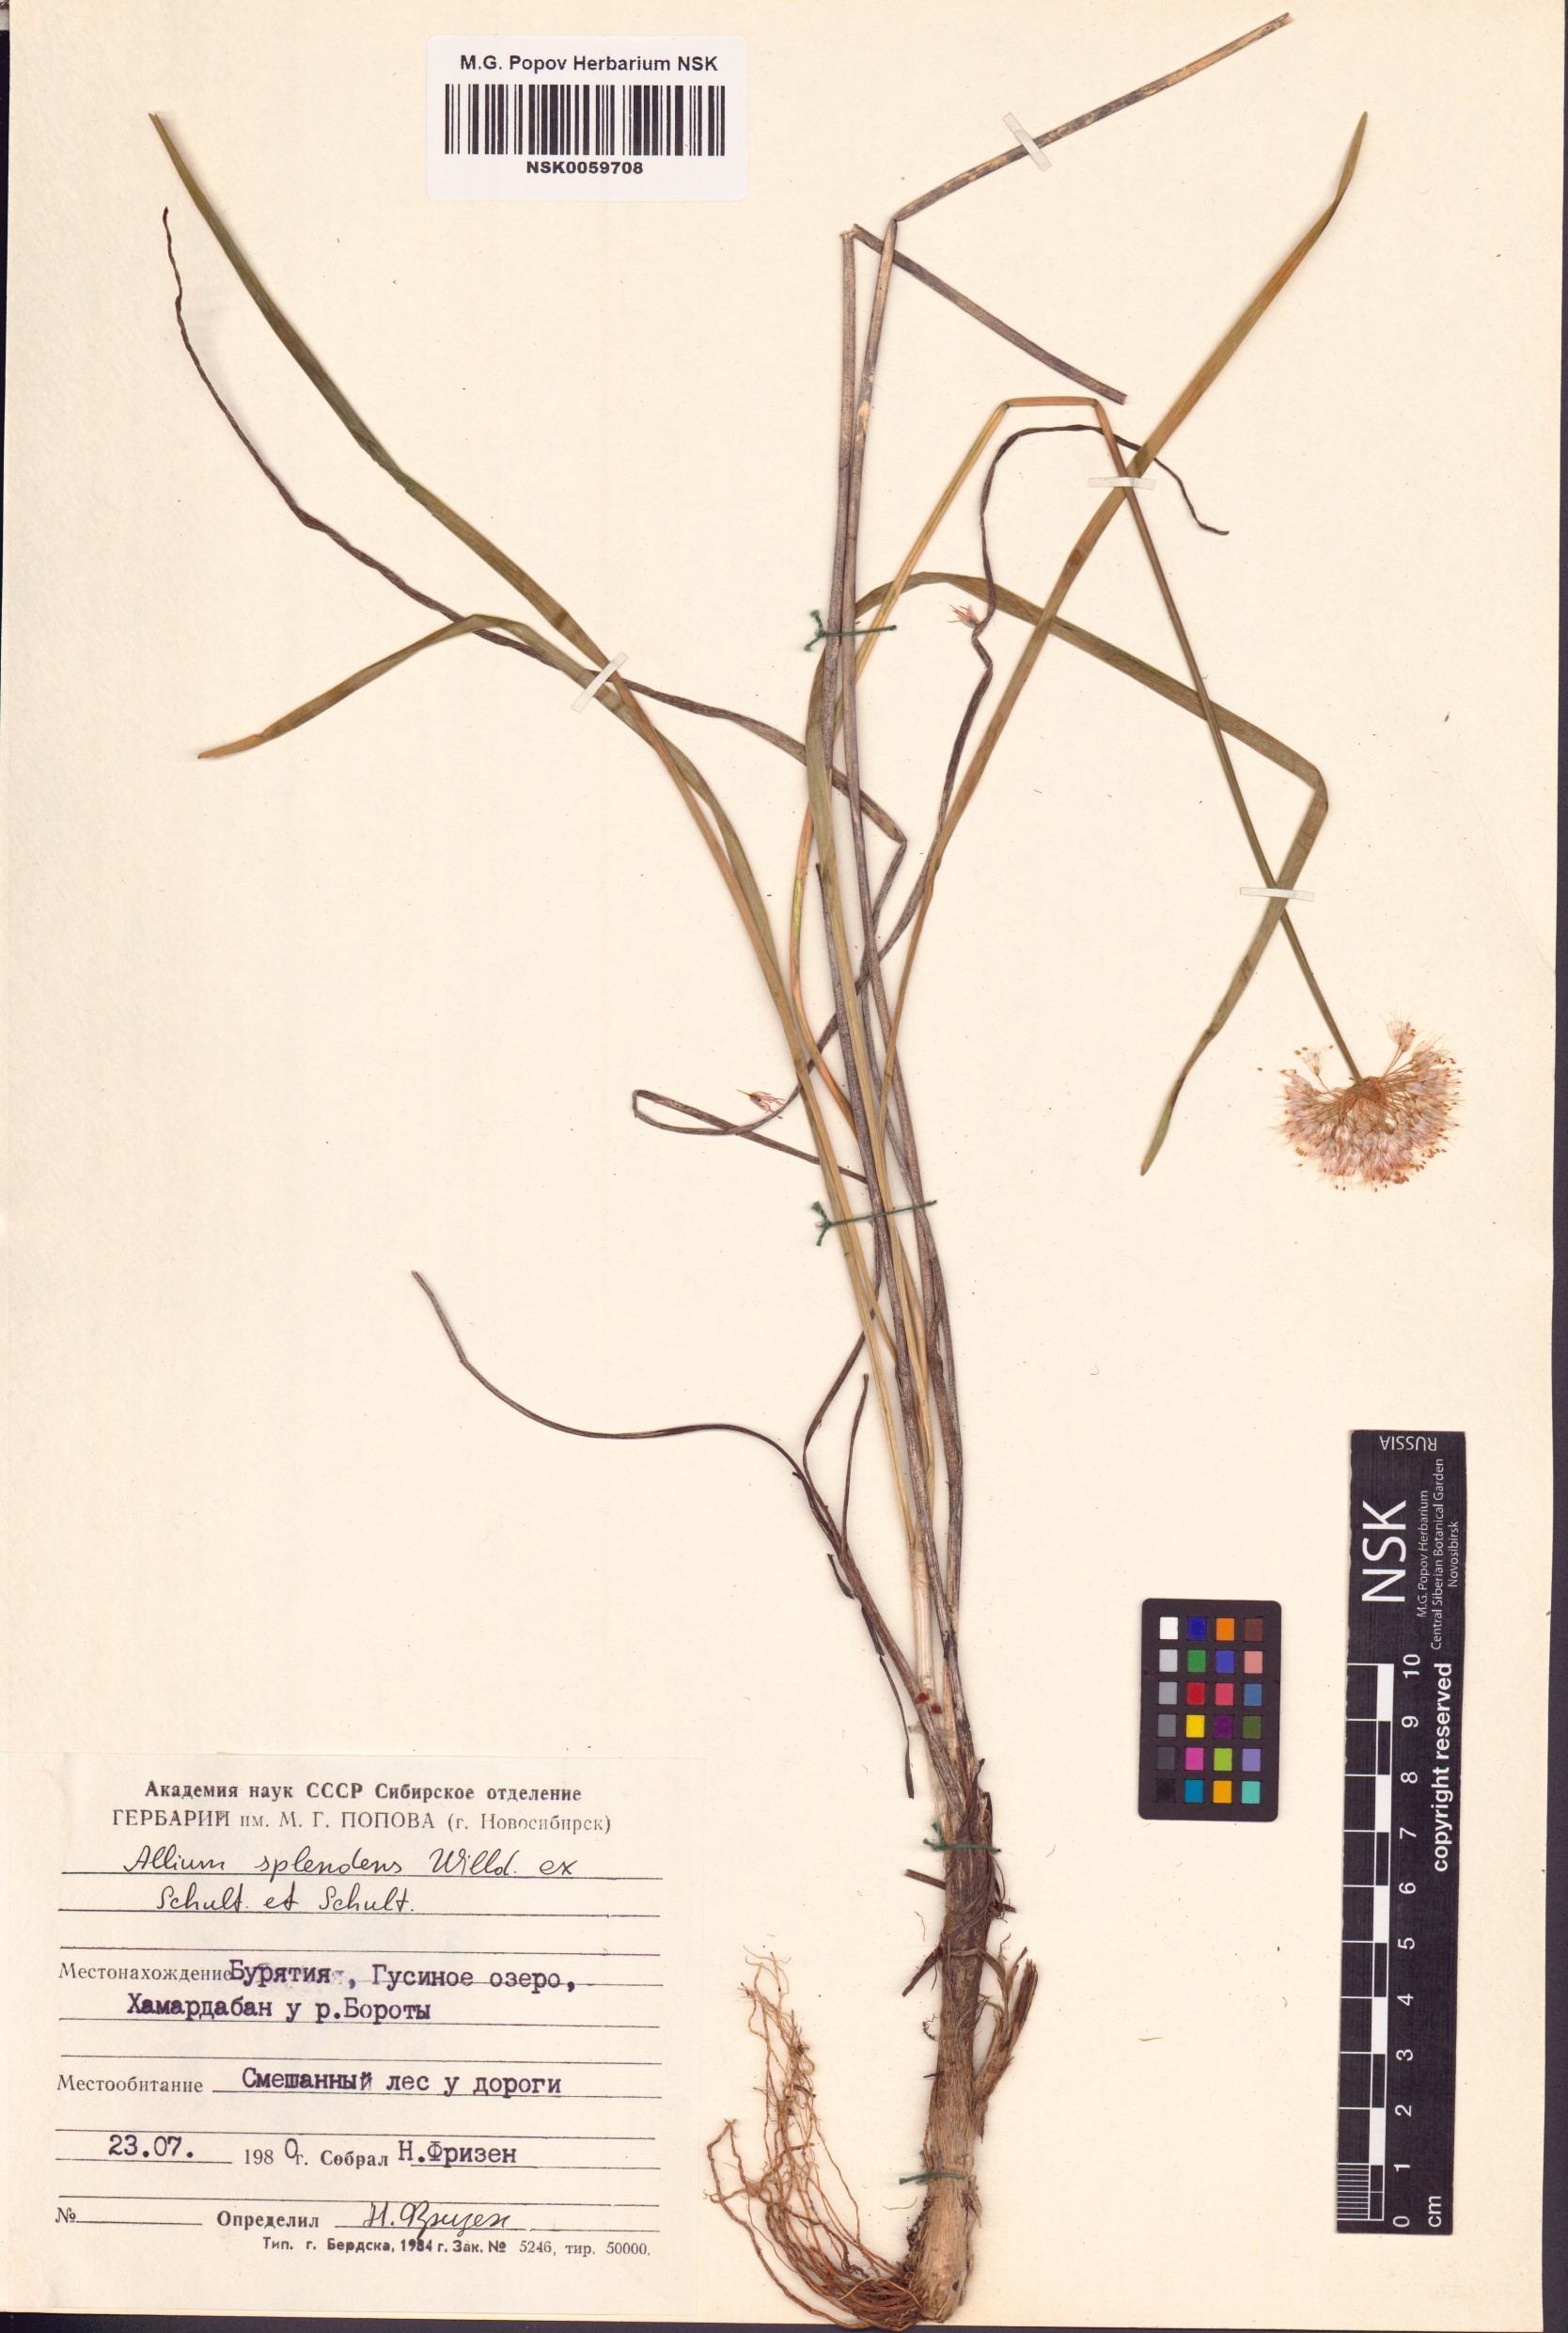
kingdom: Plantae
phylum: Tracheophyta
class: Liliopsida
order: Asparagales
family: Amaryllidaceae
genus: Allium
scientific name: Allium splendens
